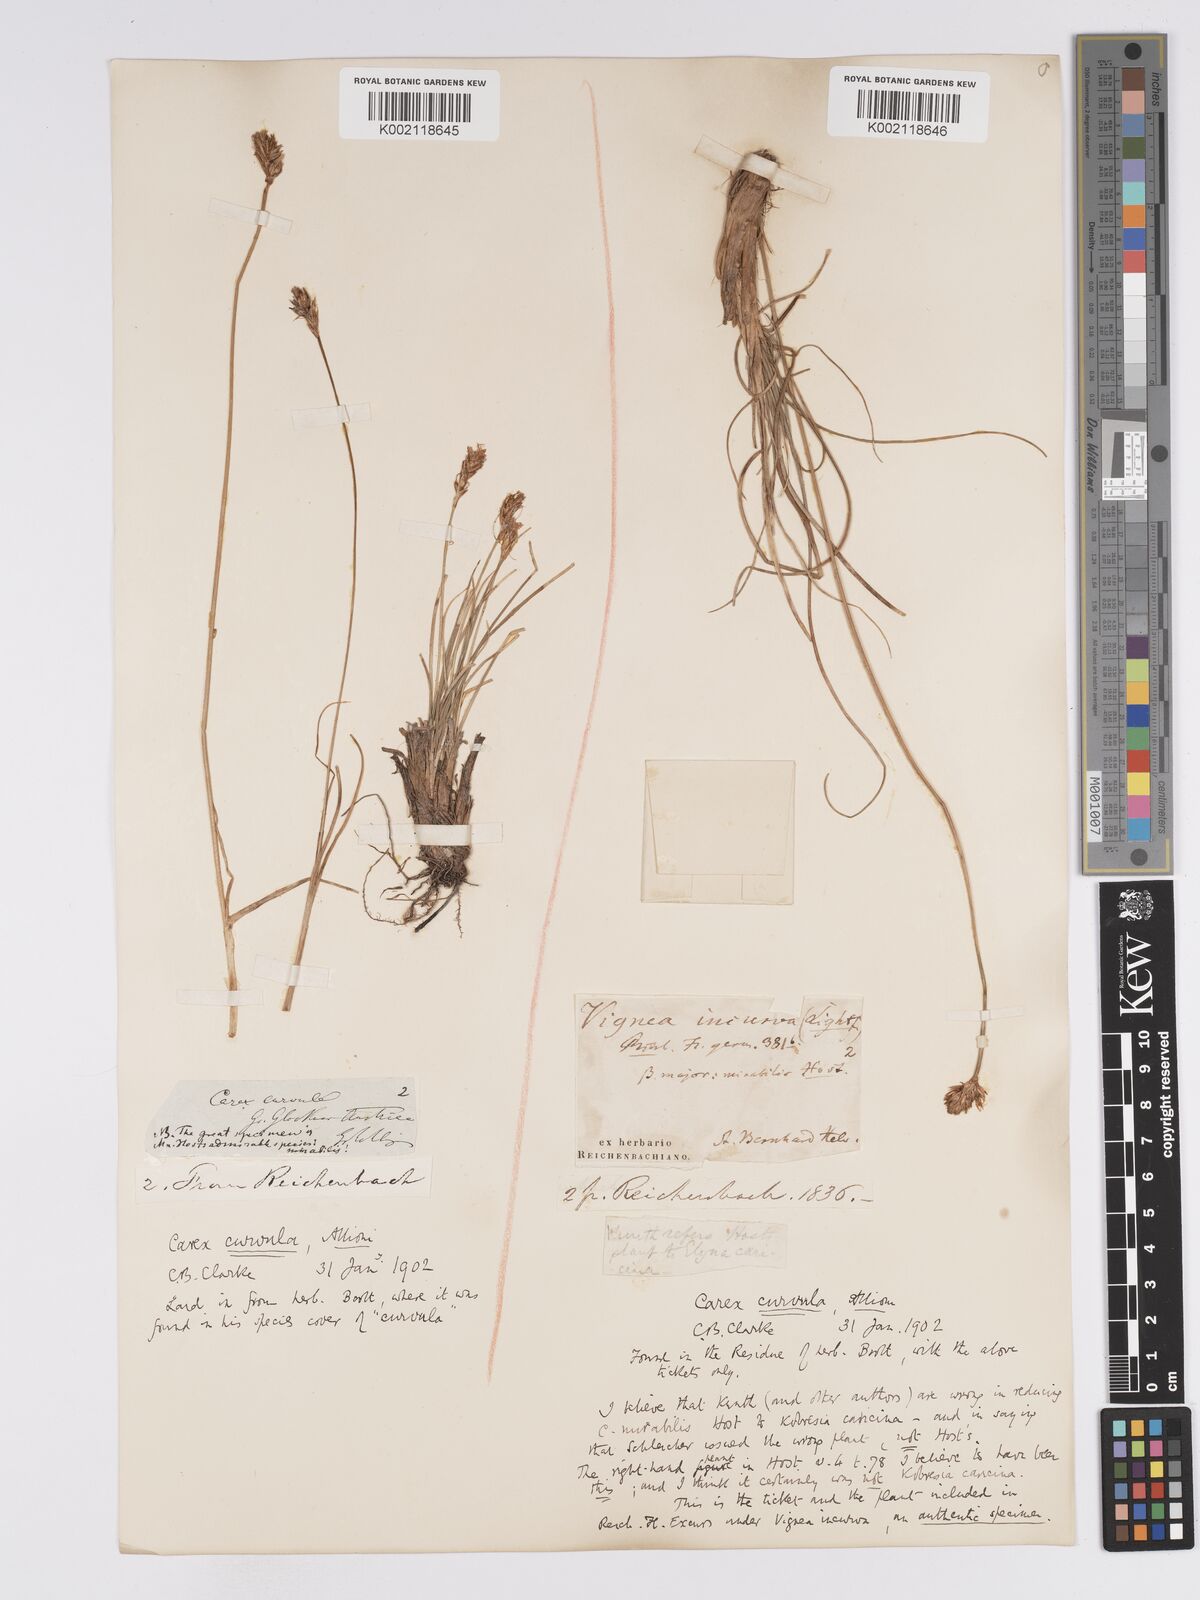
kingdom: Plantae
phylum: Tracheophyta
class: Liliopsida
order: Poales
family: Cyperaceae
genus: Carex
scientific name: Carex curvula
